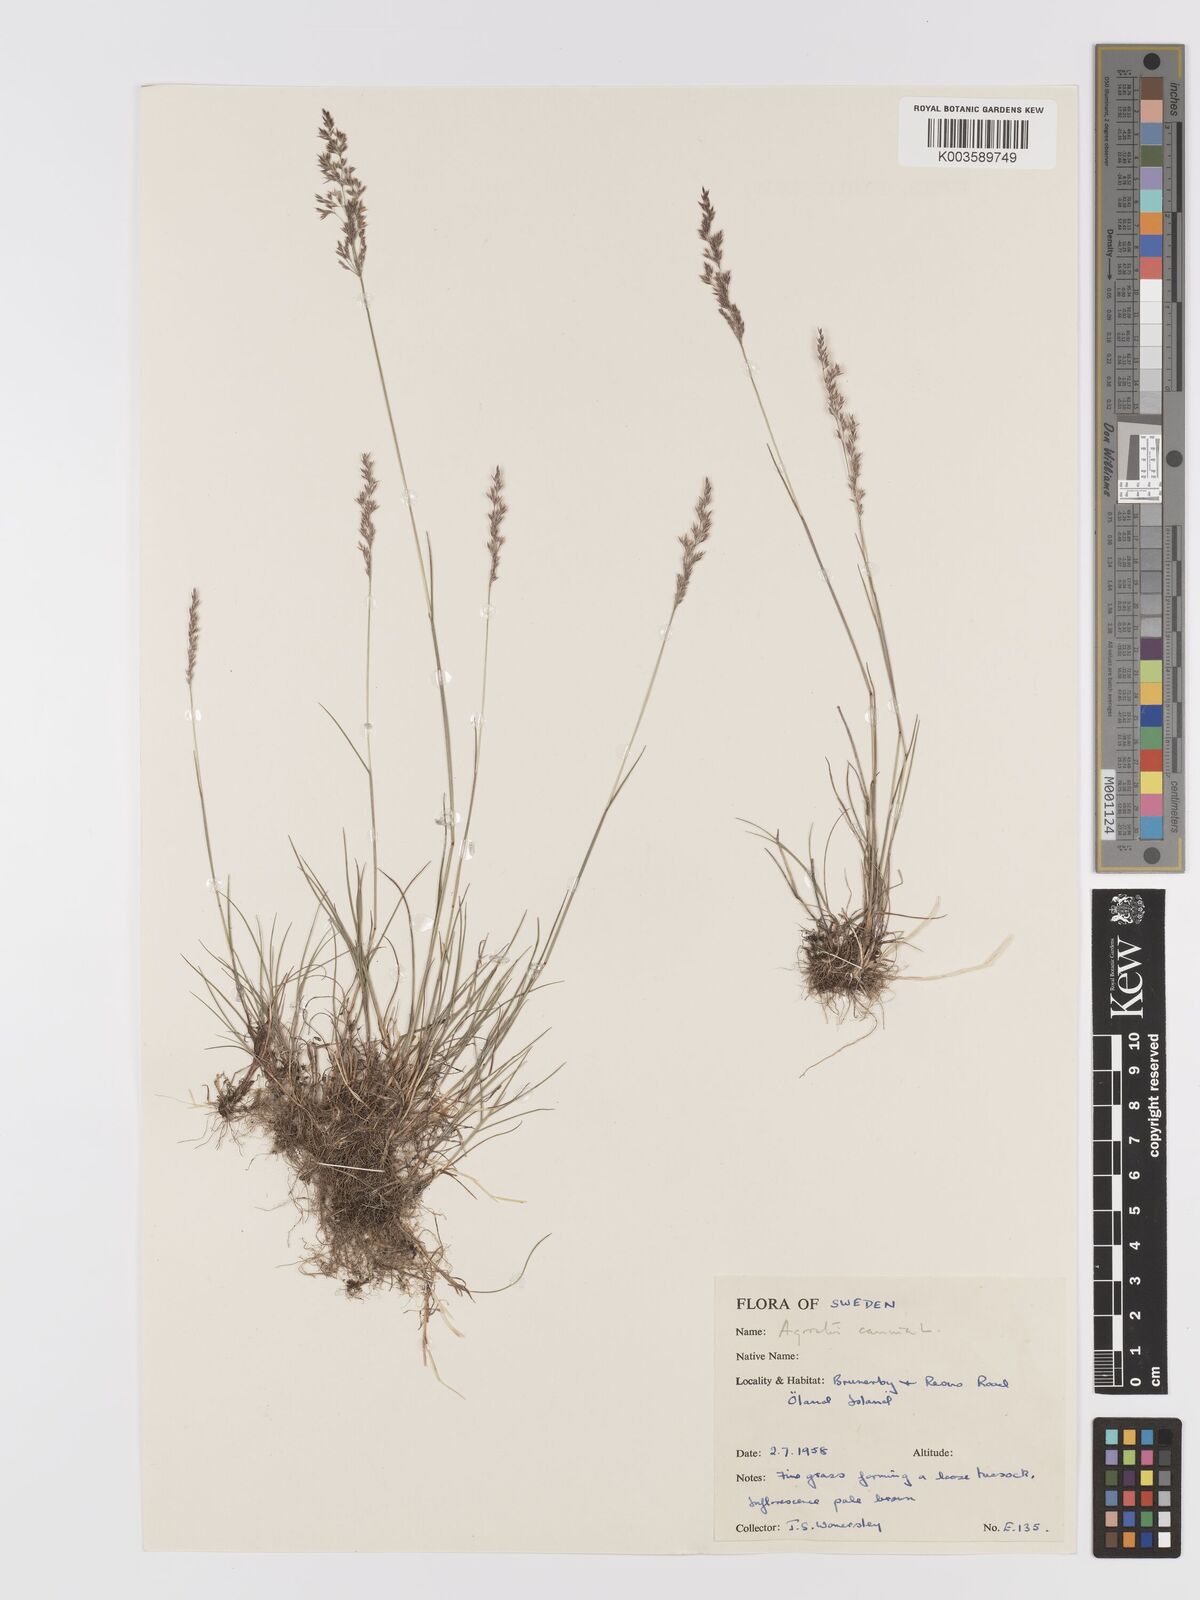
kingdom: Plantae
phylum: Tracheophyta
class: Liliopsida
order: Poales
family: Poaceae
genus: Agrostis
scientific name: Agrostis
